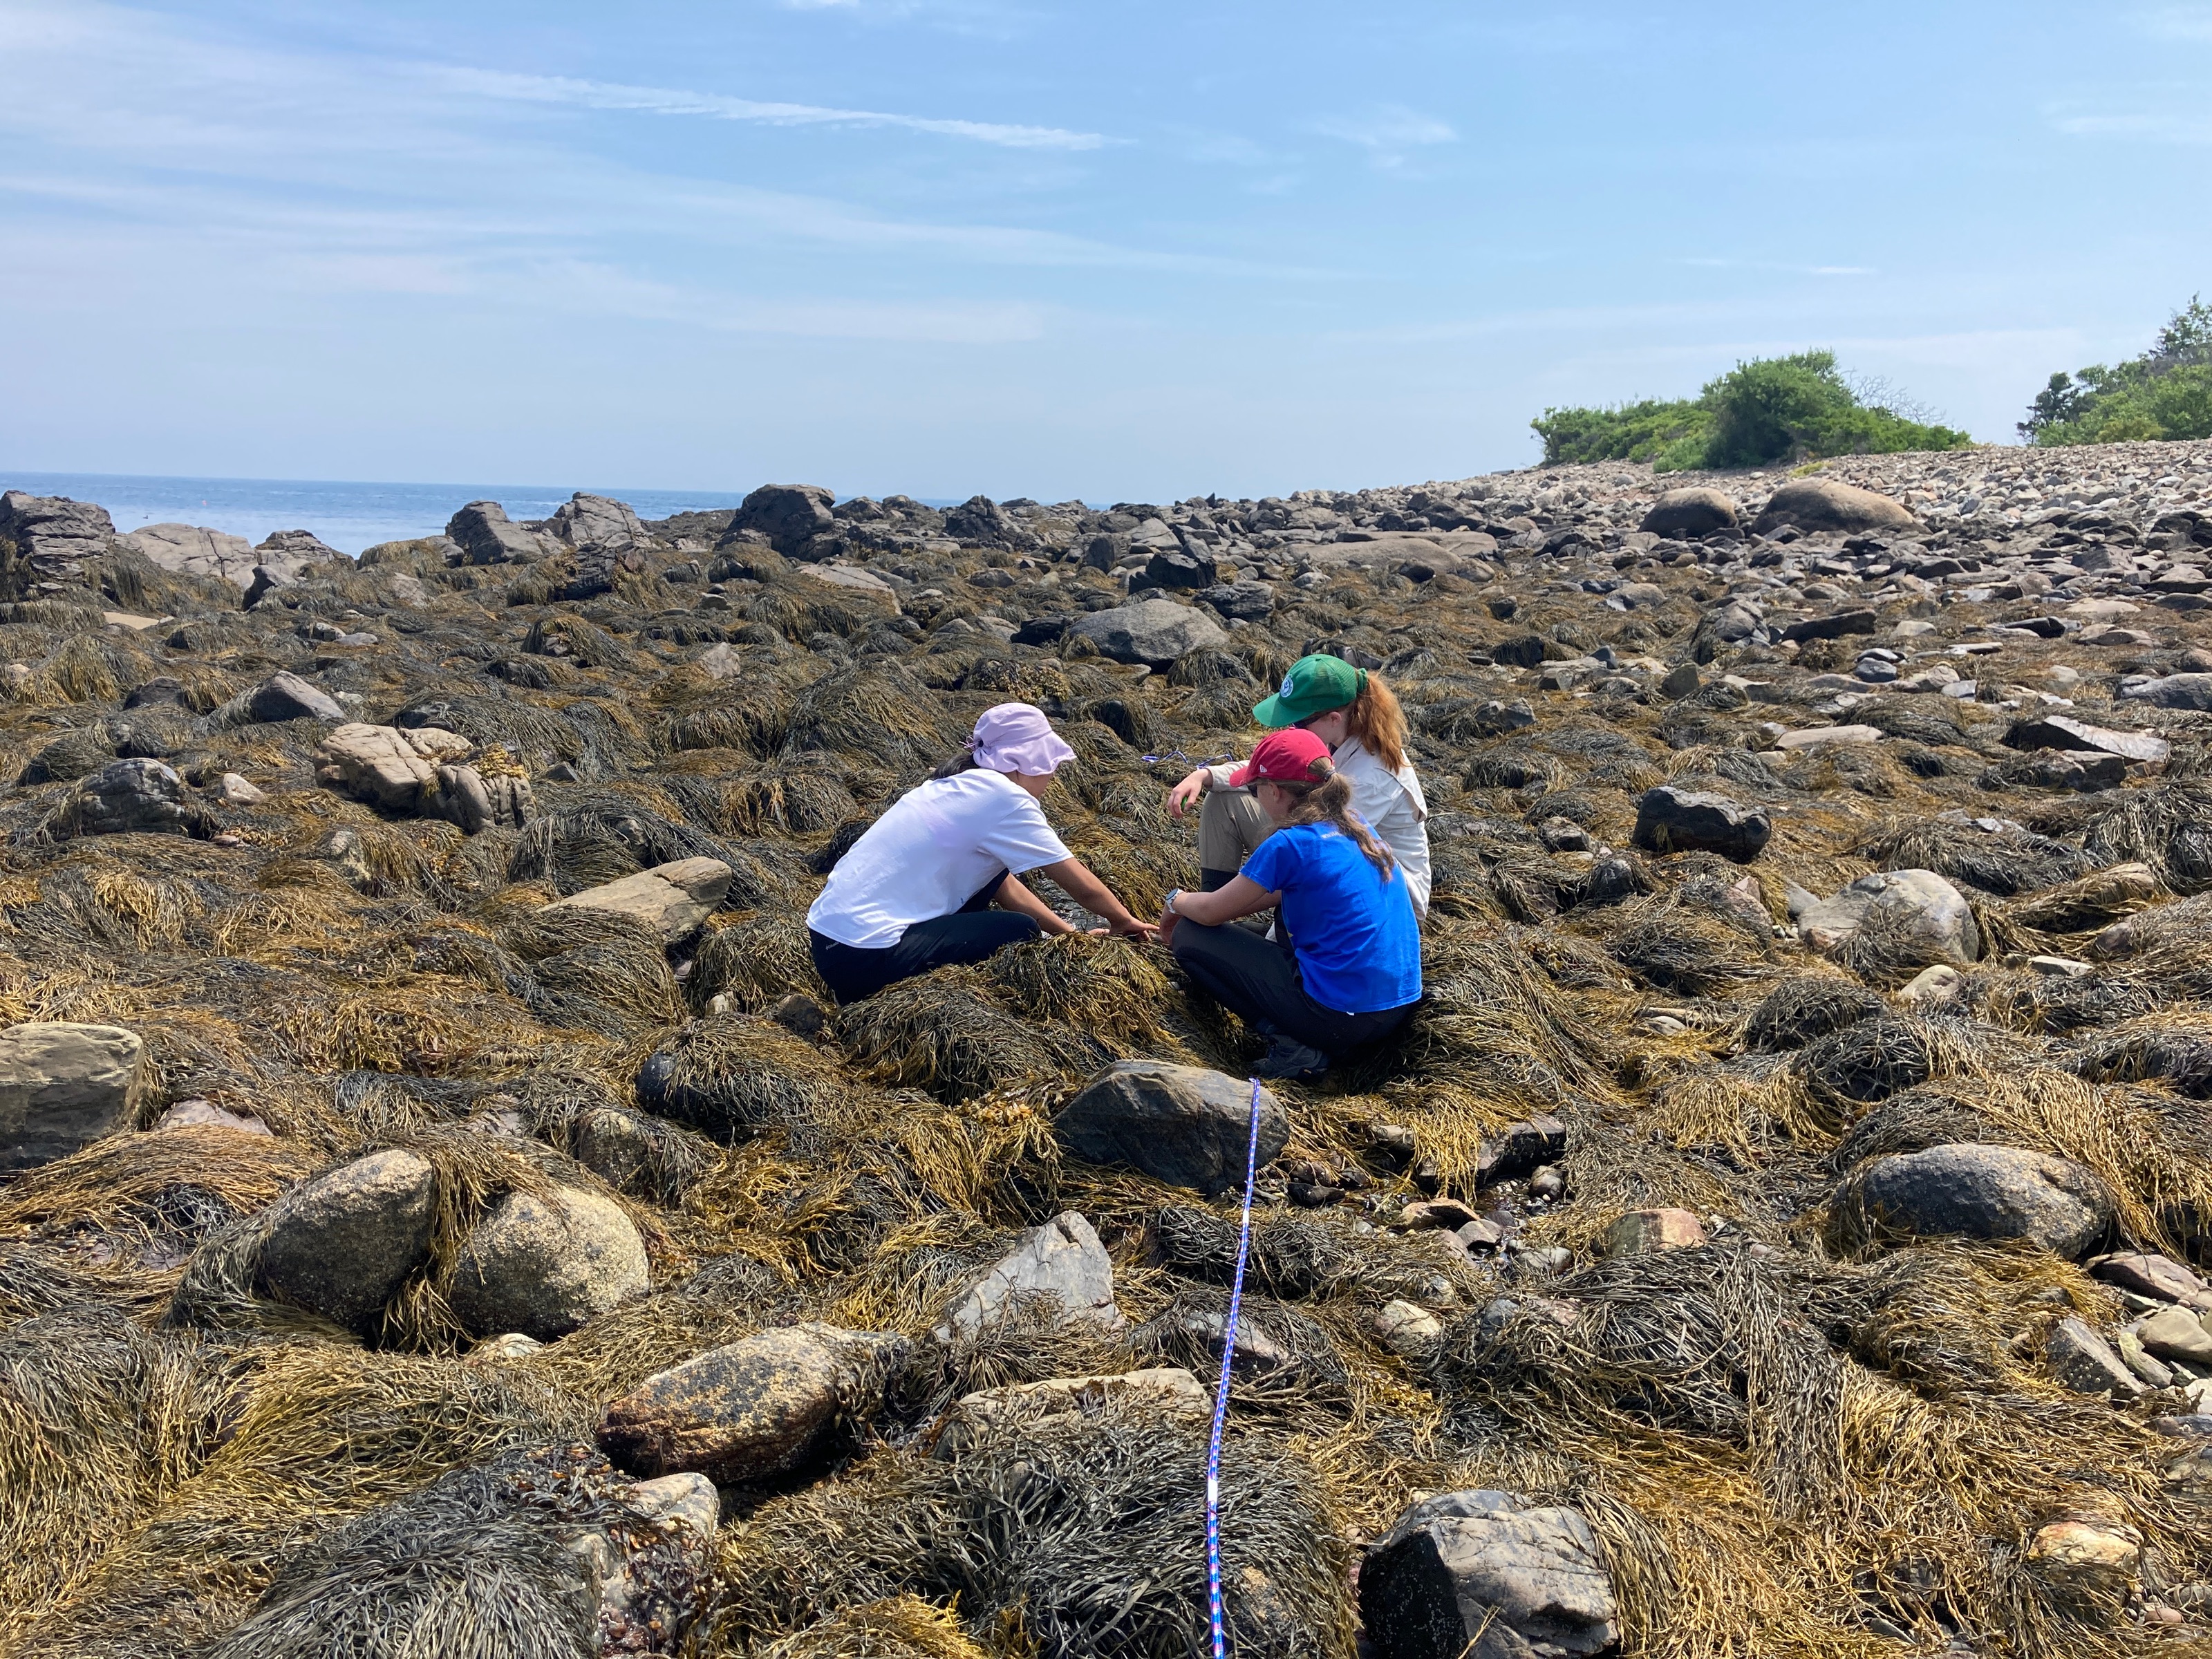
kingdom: Chromista
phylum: Ochrophyta
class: Phaeophyceae
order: Fucales
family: Fucaceae
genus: Ascophyllum
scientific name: Ascophyllum nodosum
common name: Rockweed
